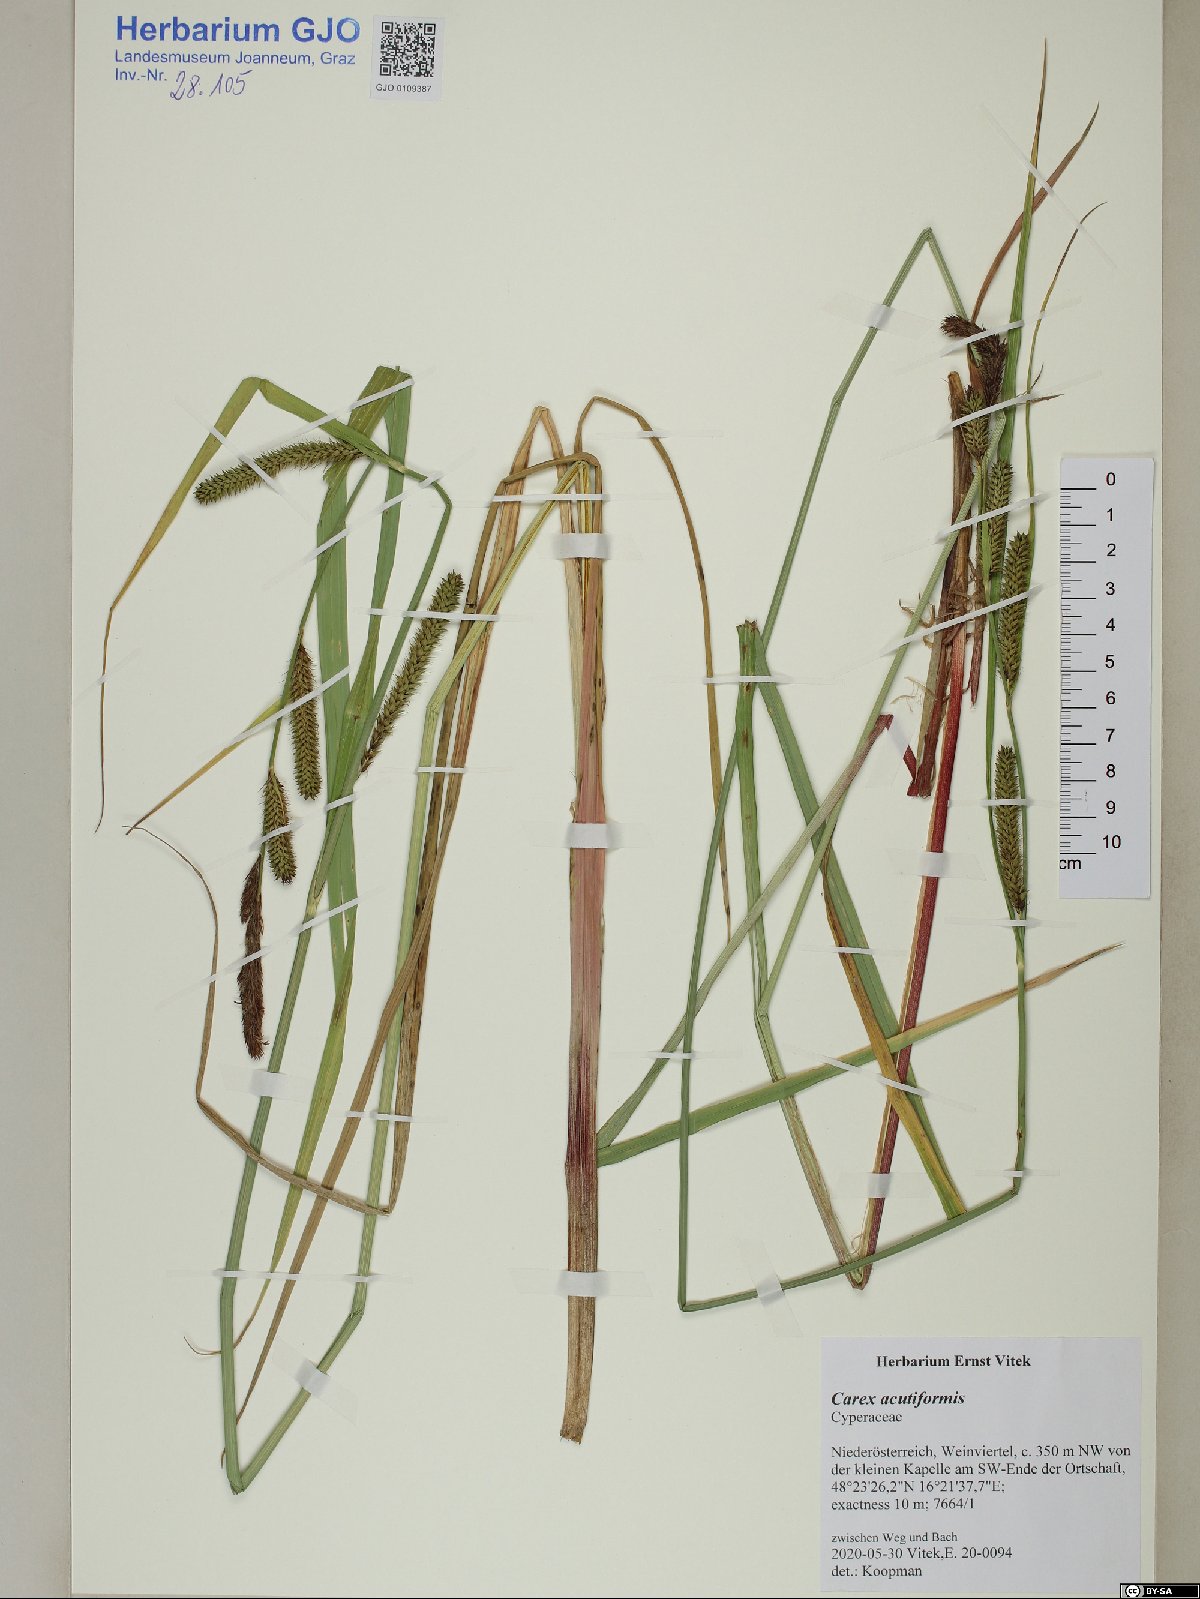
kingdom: Plantae
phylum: Tracheophyta
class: Liliopsida
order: Poales
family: Poaceae
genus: Agrostis
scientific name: Agrostis hallii
